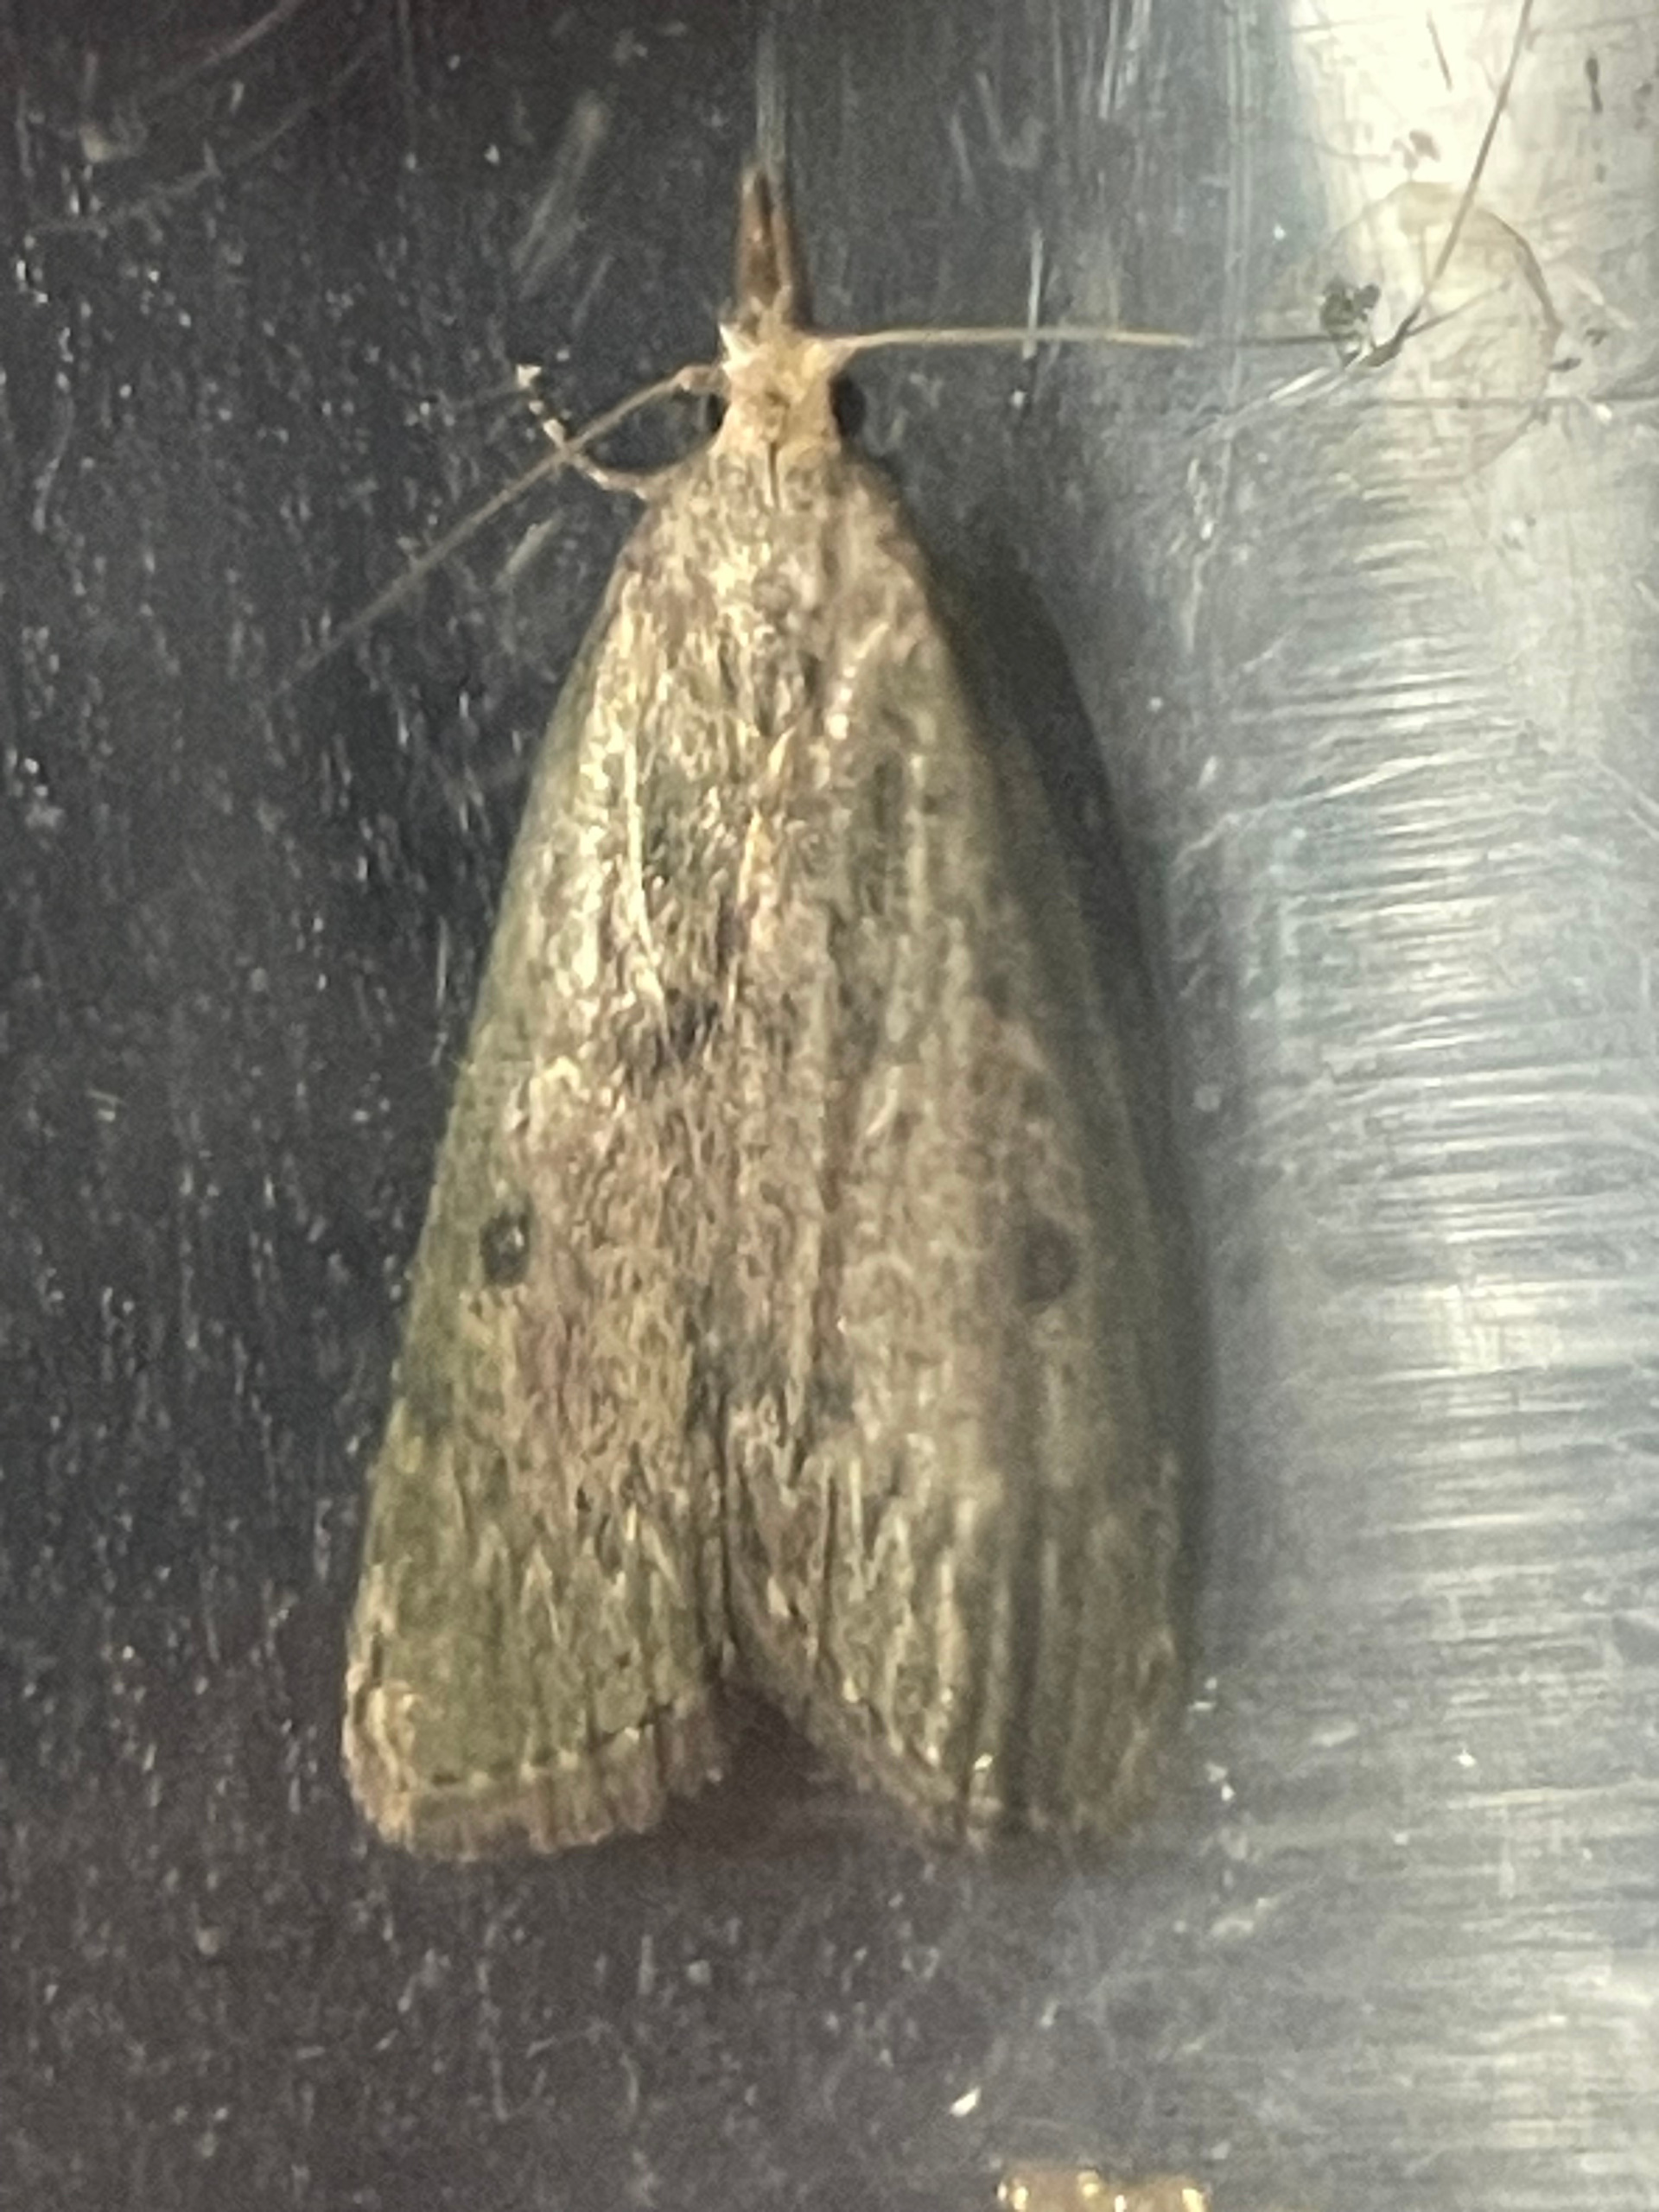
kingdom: Animalia
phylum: Arthropoda
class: Insecta
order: Lepidoptera
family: Pyralidae
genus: Aphomia
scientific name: Aphomia sociella
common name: Humlevoksmøl
